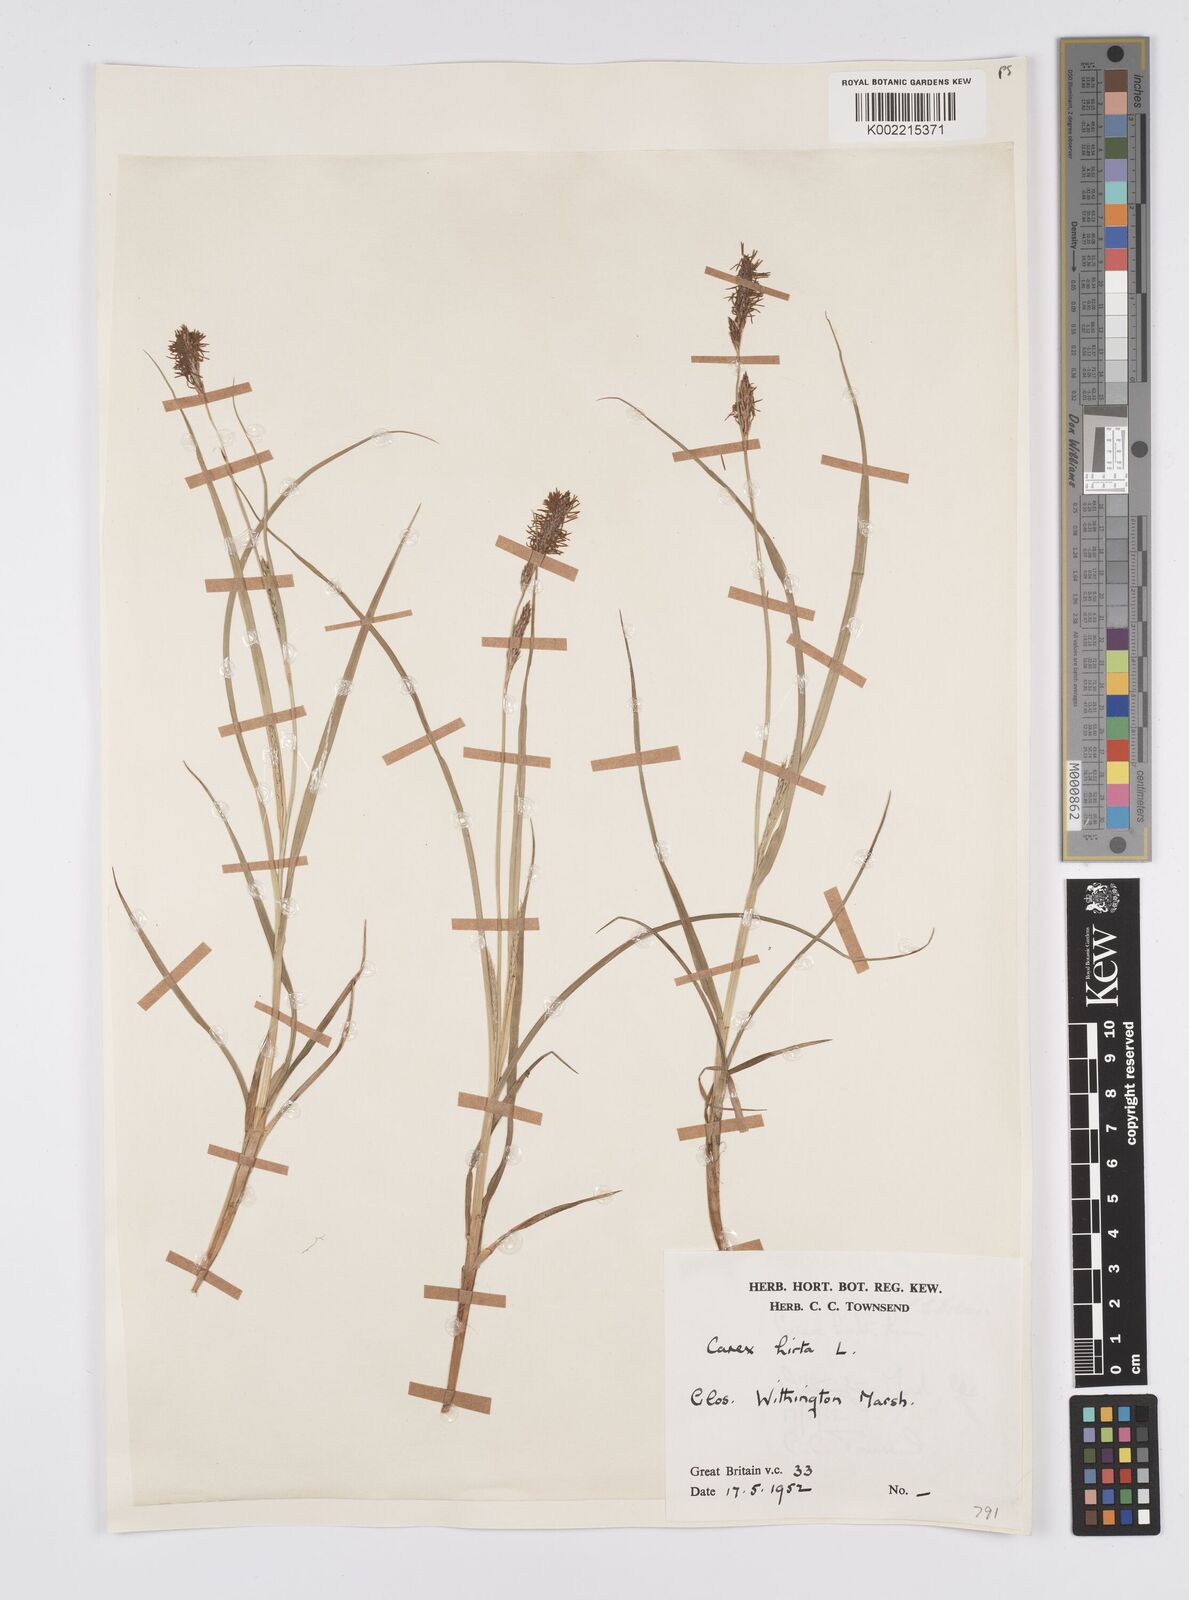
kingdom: Plantae
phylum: Tracheophyta
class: Liliopsida
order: Poales
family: Cyperaceae
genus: Carex
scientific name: Carex hirta
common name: Hairy sedge
